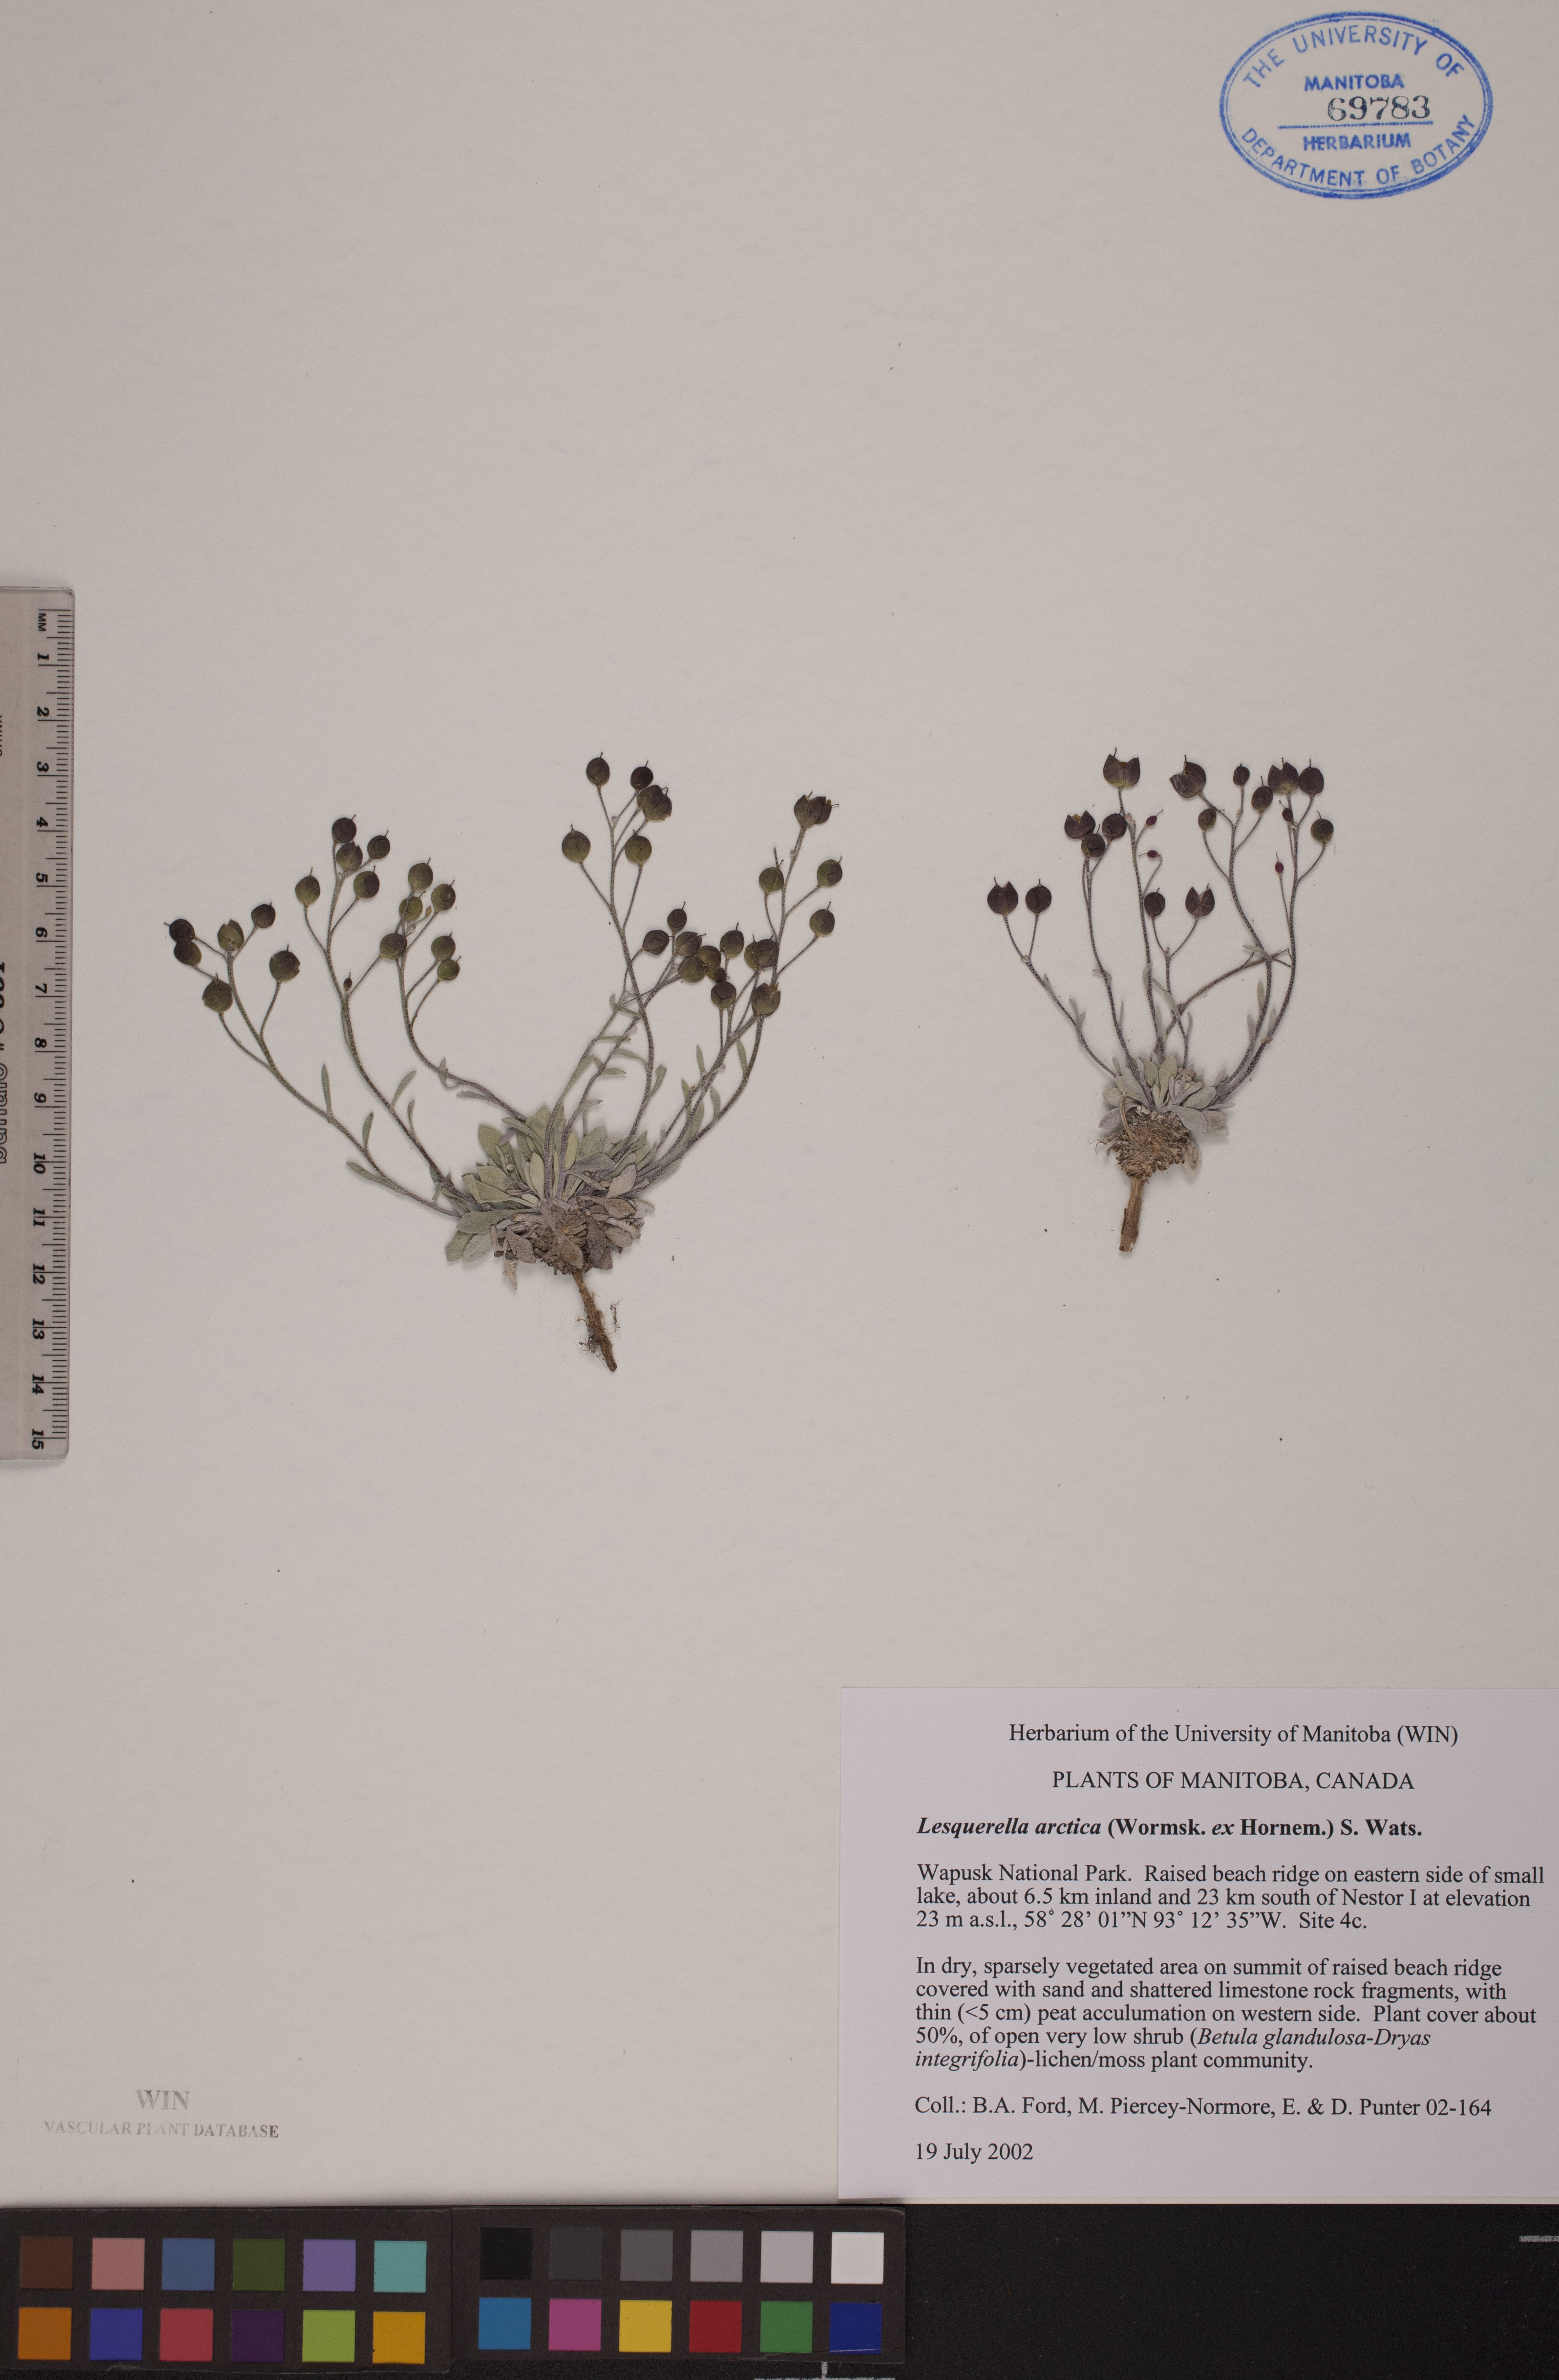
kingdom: Plantae
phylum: Tracheophyta
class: Magnoliopsida
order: Brassicales
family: Brassicaceae
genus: Physaria
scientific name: Physaria arctica
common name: Arctic bladderpod
